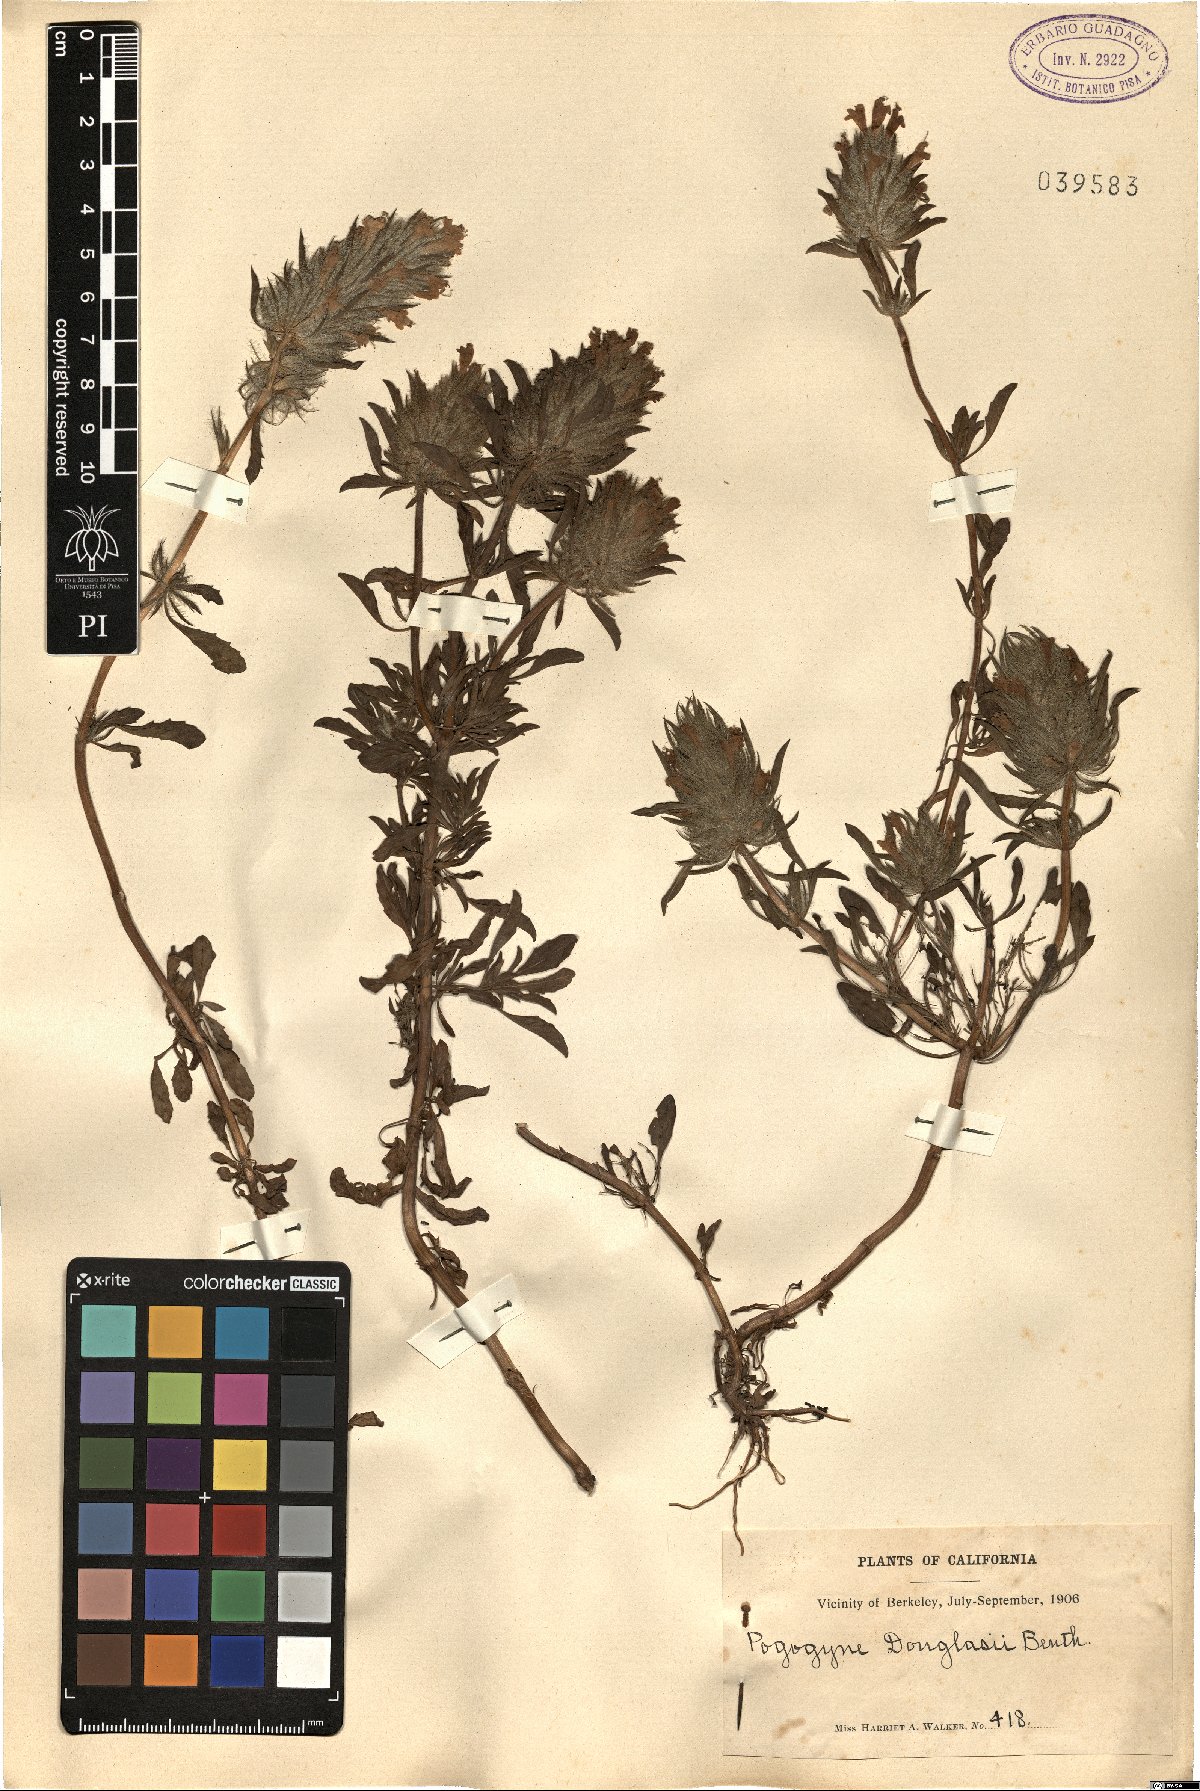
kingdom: Plantae
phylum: Tracheophyta
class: Magnoliopsida
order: Lamiales
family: Lamiaceae
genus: Pogogyne
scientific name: Pogogyne douglasii
